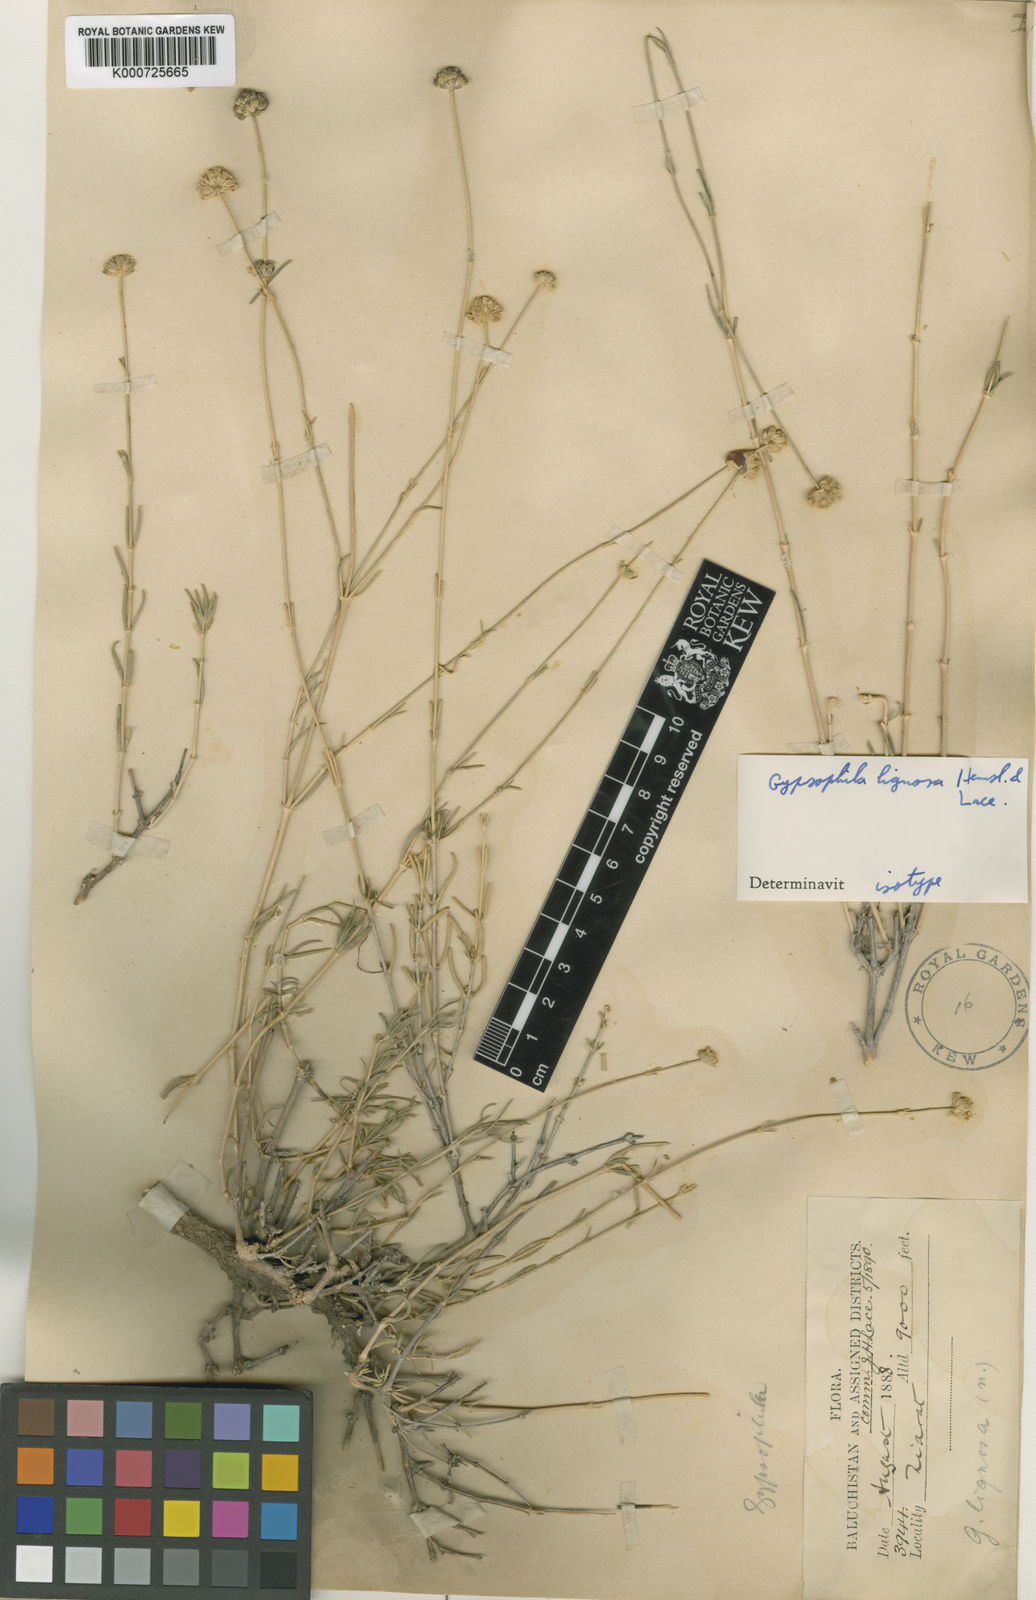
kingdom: Plantae
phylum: Tracheophyta
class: Magnoliopsida
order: Caryophyllales
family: Caryophyllaceae
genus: Gypsophila
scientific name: Gypsophila lignosa
